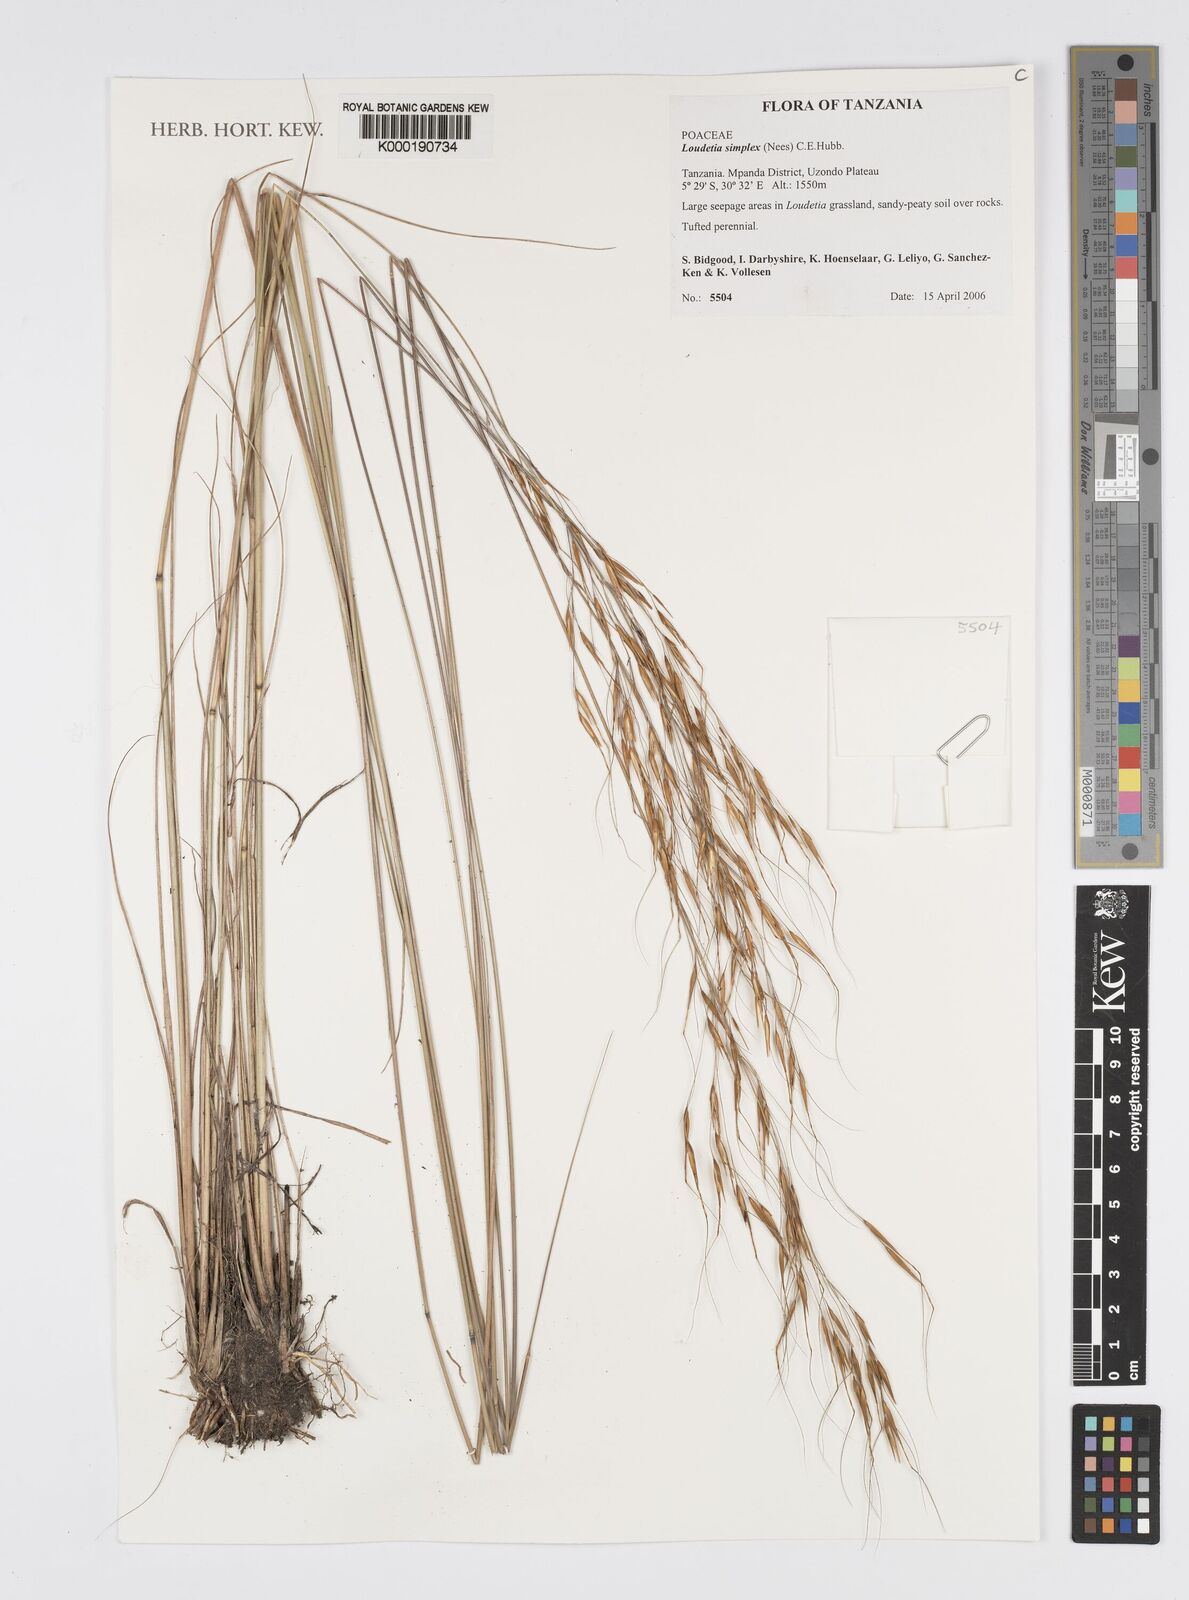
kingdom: Plantae
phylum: Tracheophyta
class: Liliopsida
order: Poales
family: Poaceae
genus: Loudetia
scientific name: Loudetia simplex
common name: Common russet grass
